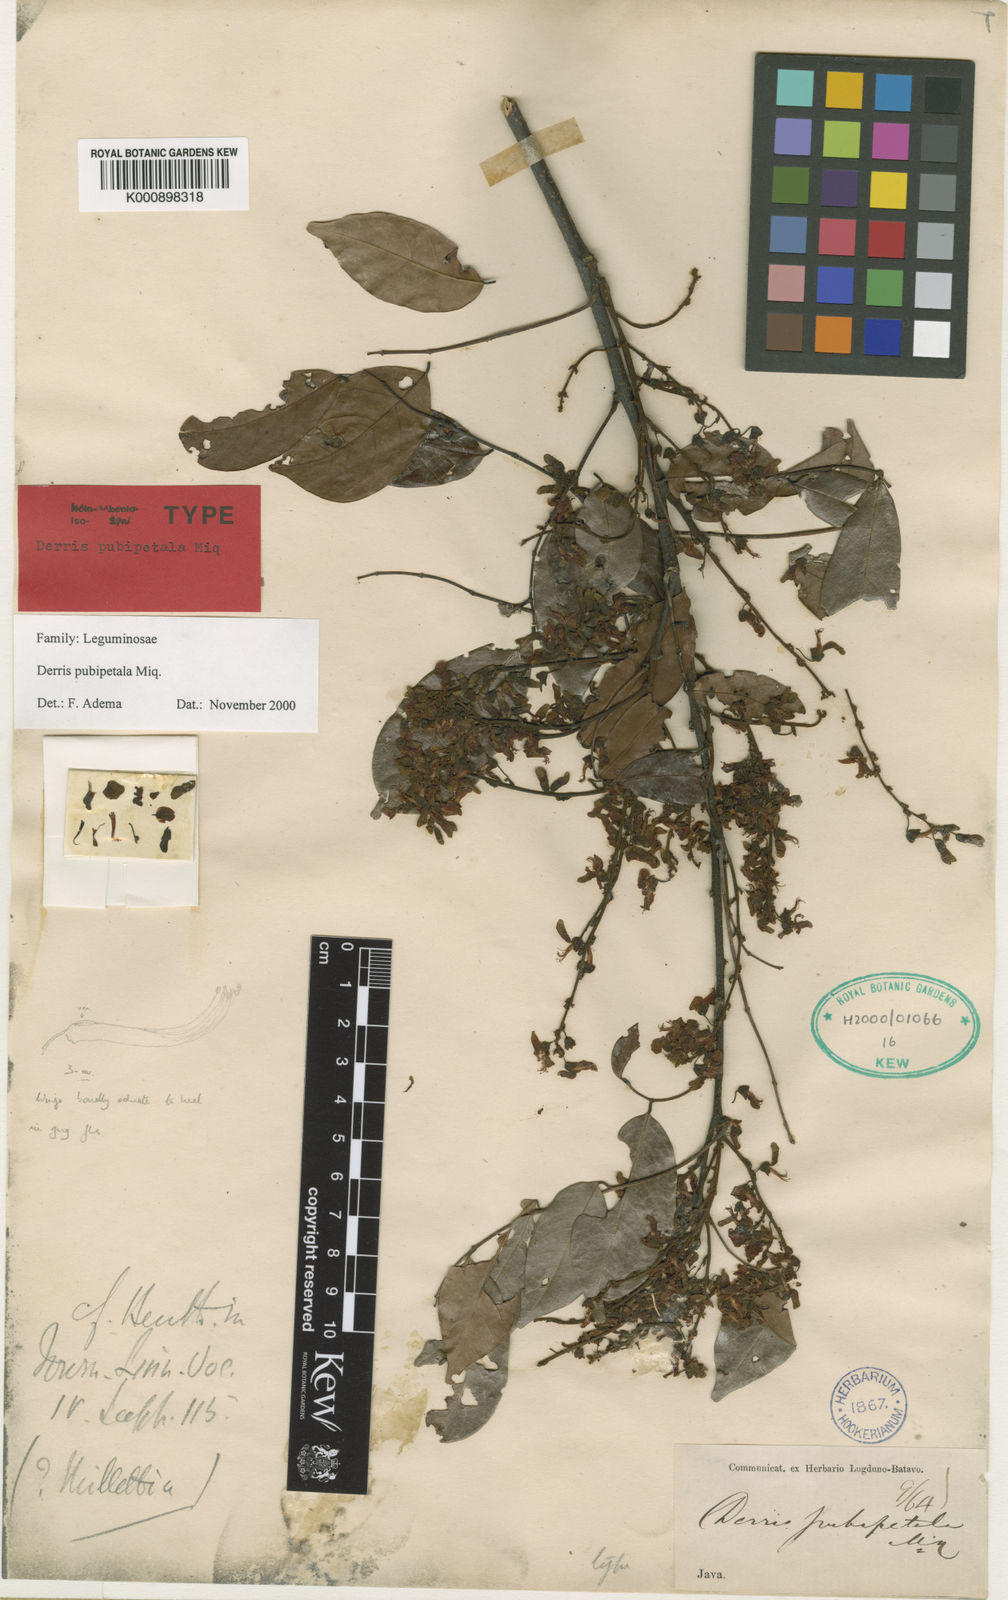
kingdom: Plantae
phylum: Tracheophyta
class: Magnoliopsida
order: Fabales
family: Fabaceae
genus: Derris
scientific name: Derris pubipetala
